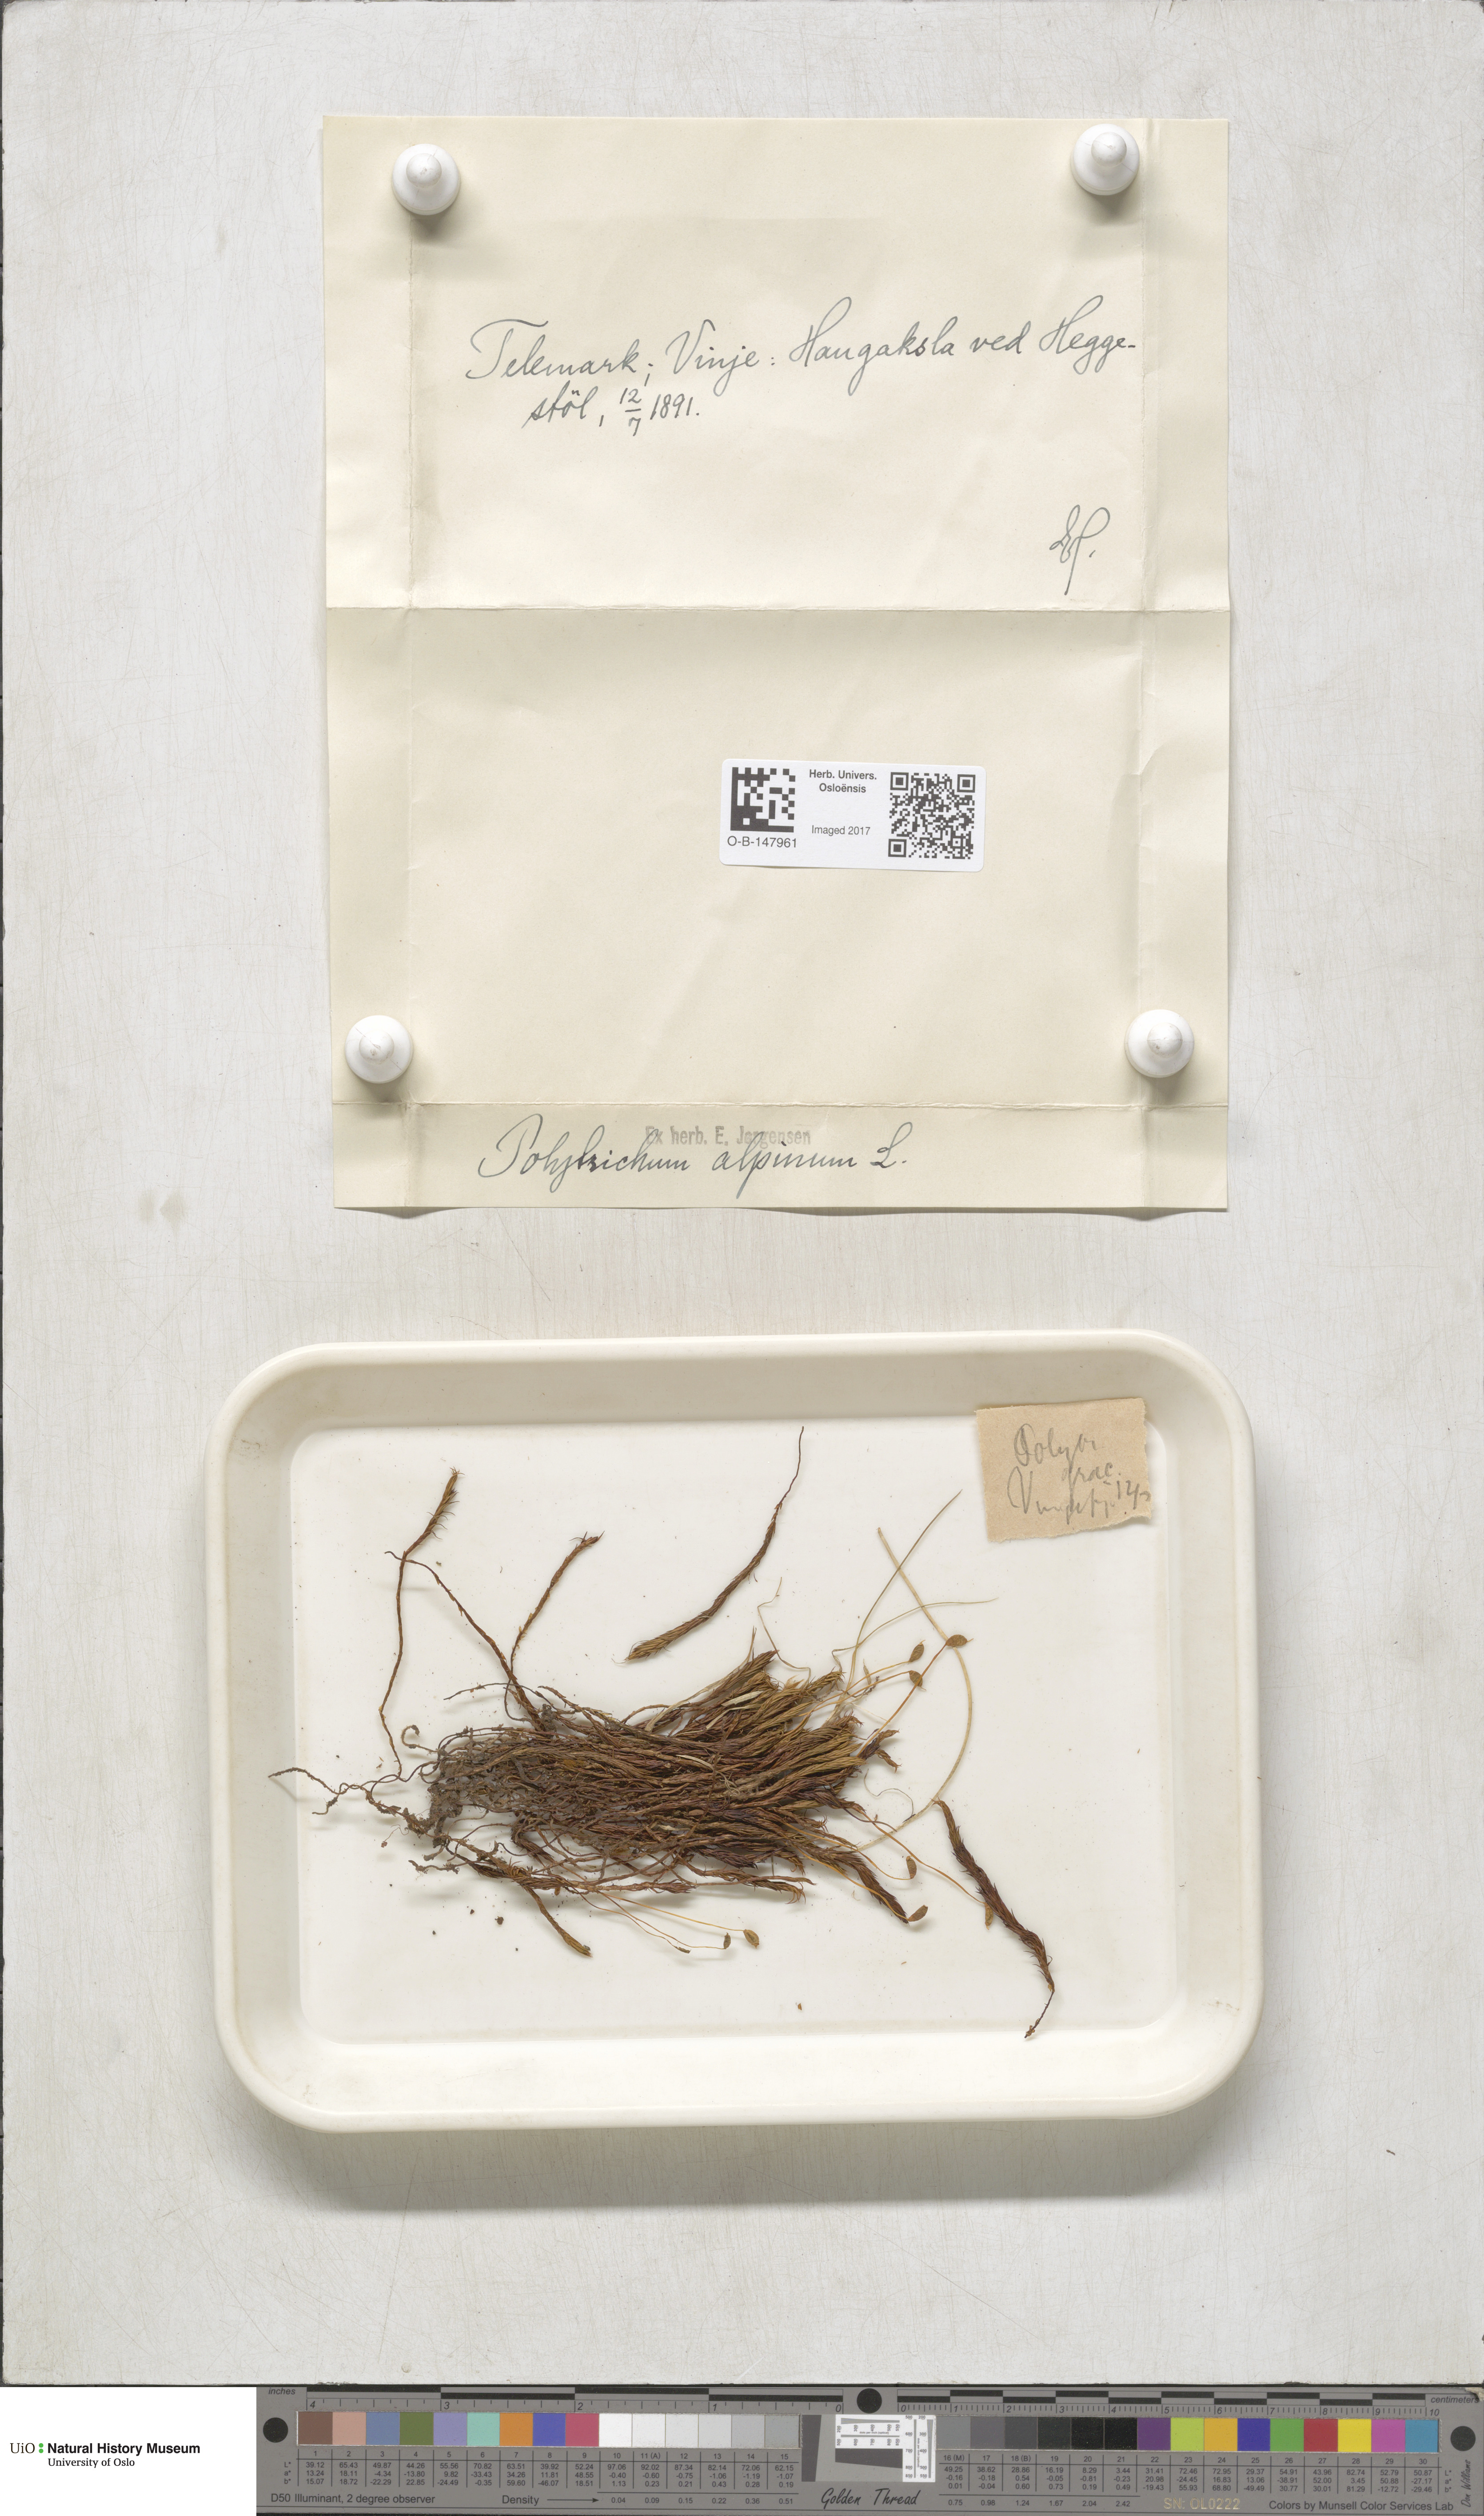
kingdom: Plantae
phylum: Bryophyta
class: Polytrichopsida
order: Polytrichales
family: Polytrichaceae
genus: Polytrichastrum
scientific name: Polytrichastrum alpinum
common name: Alpine haircap
